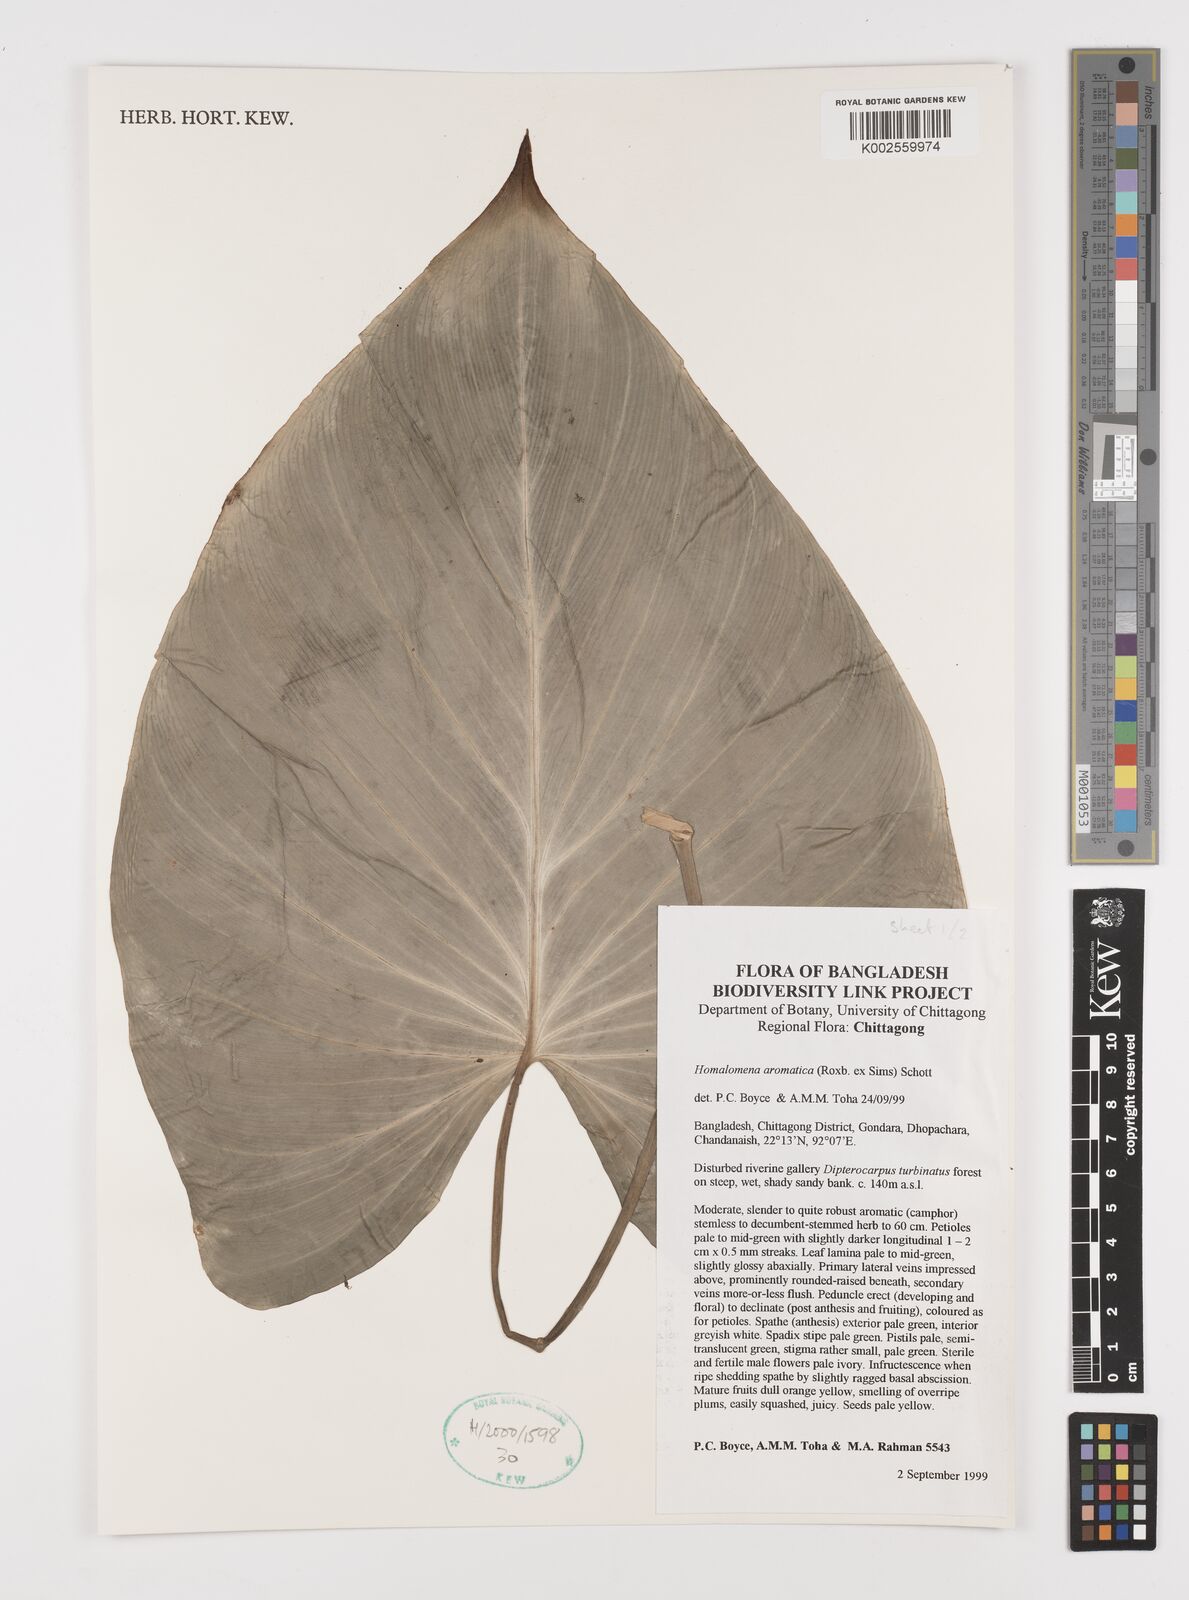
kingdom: Plantae
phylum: Tracheophyta
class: Liliopsida
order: Alismatales
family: Araceae
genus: Homalomena
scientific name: Homalomena aromatica
